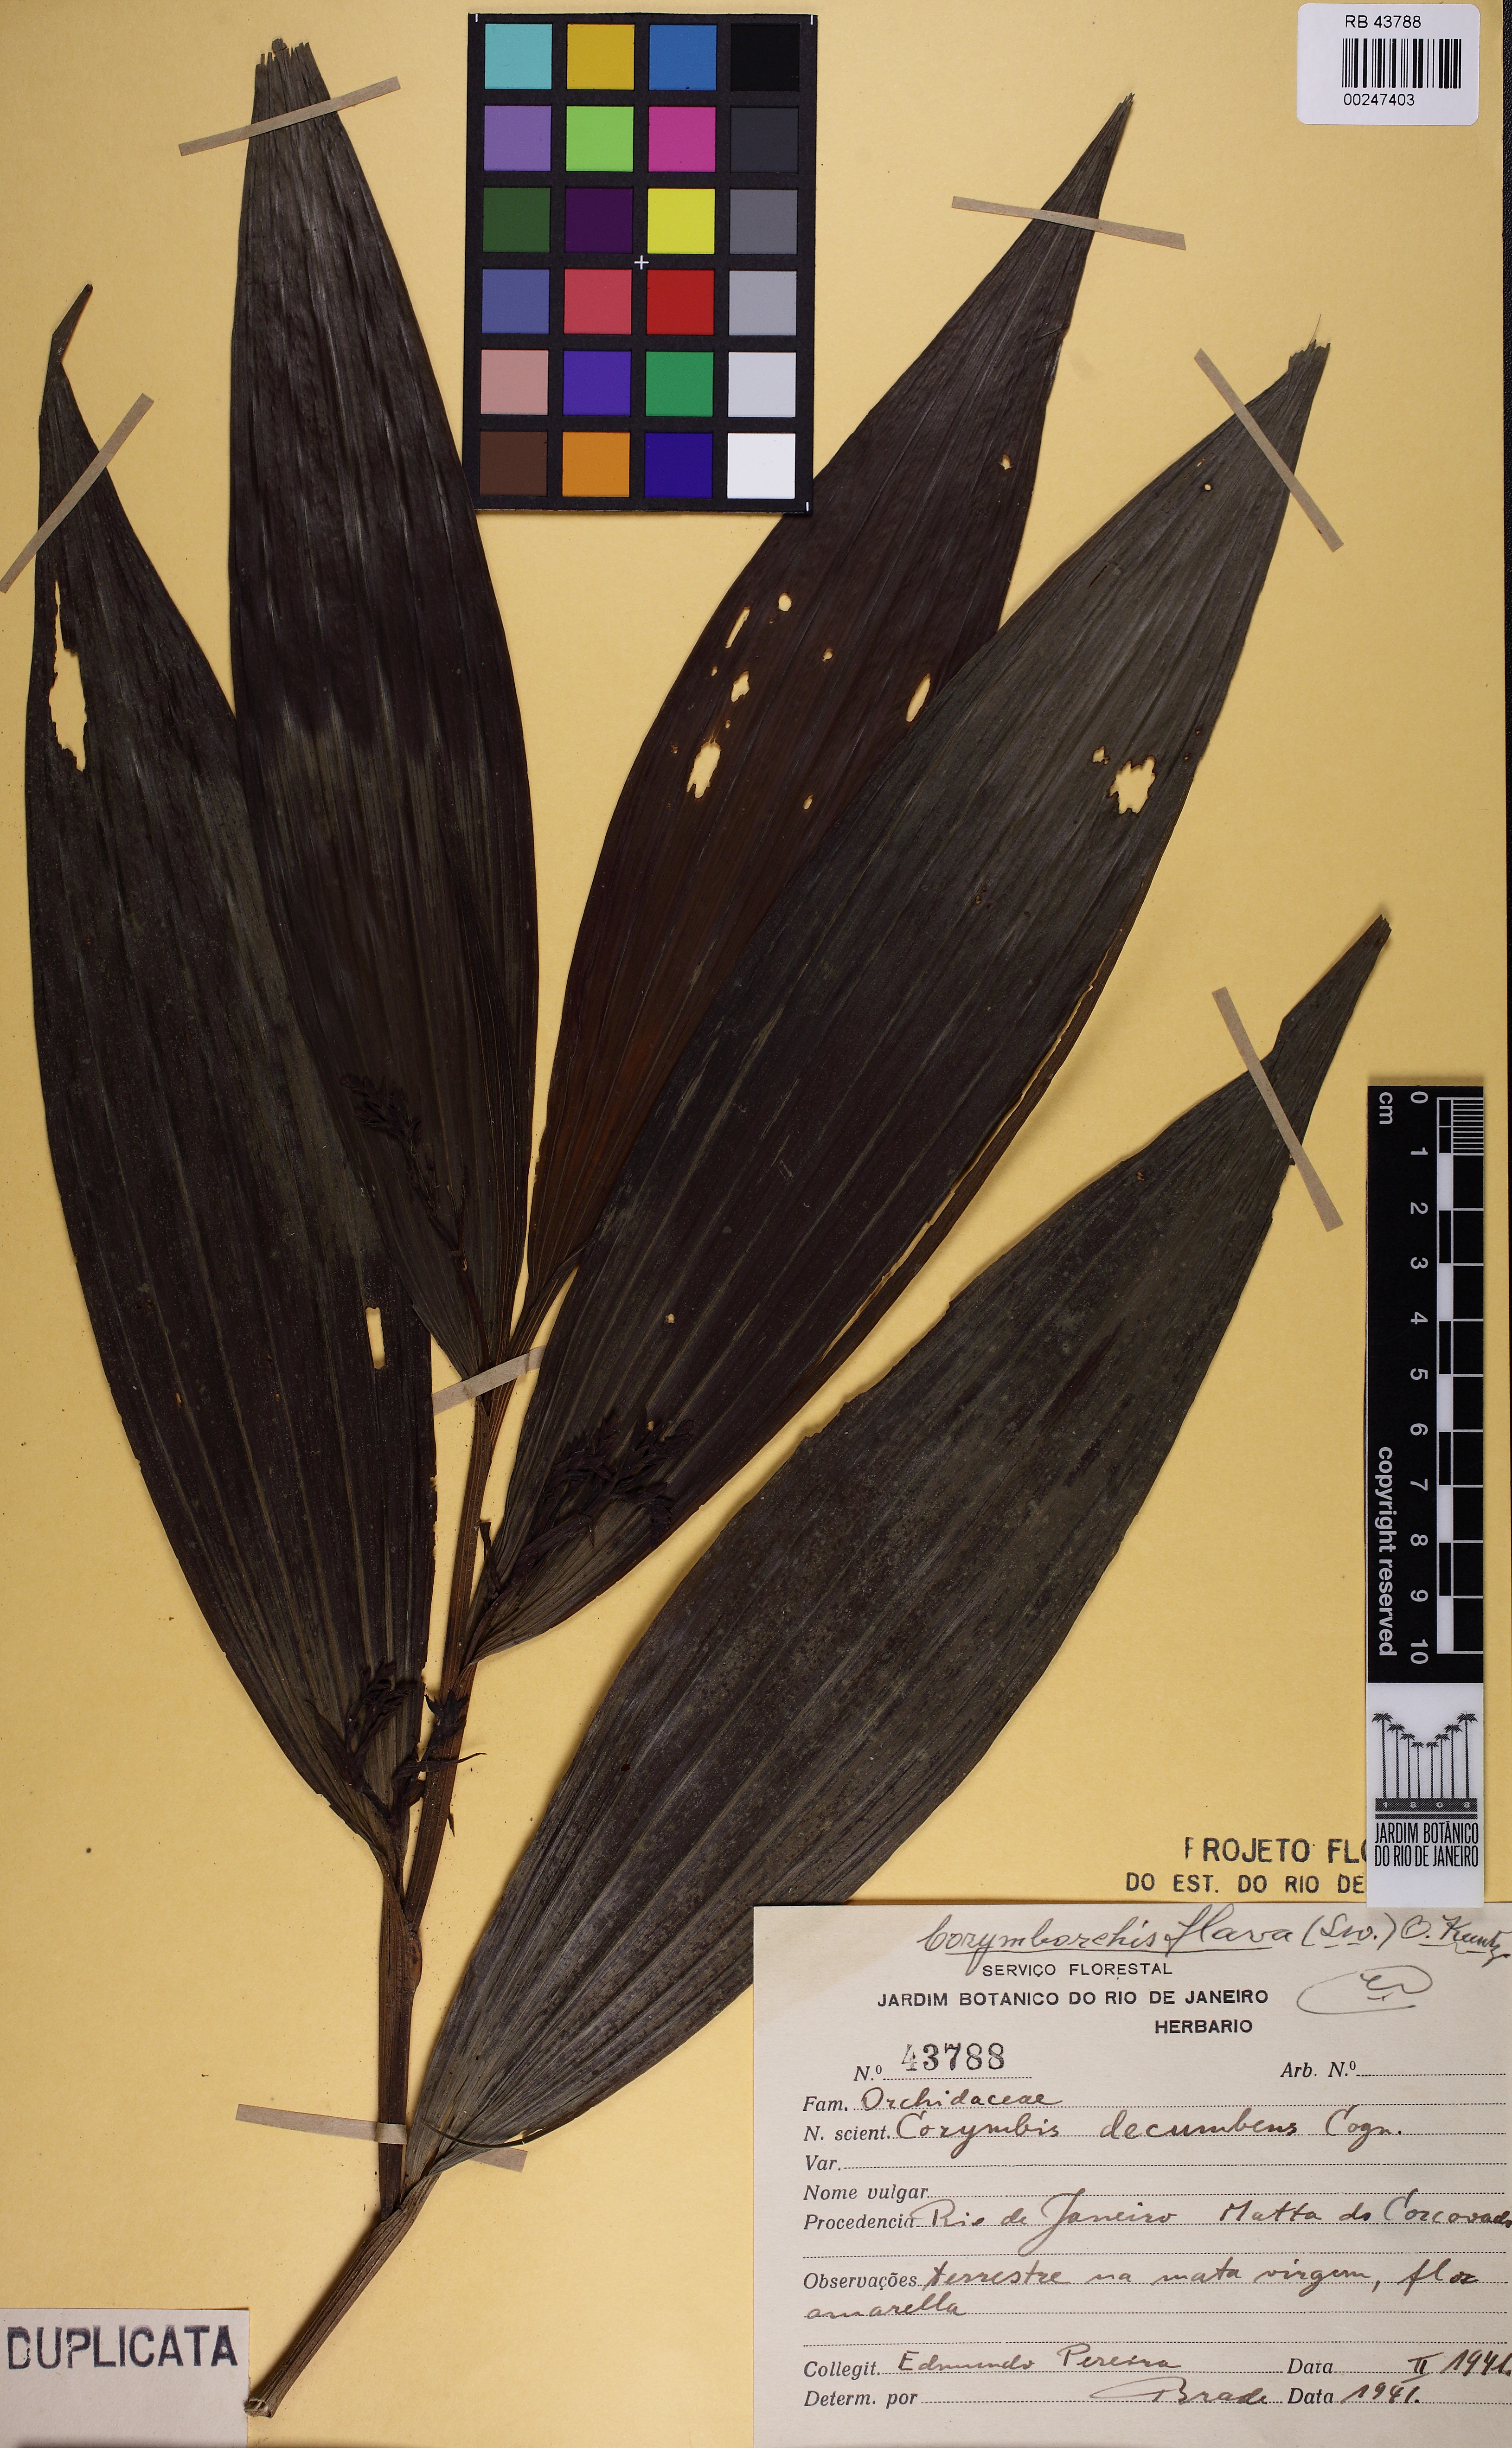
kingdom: Plantae
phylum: Tracheophyta
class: Liliopsida
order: Asparagales
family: Orchidaceae
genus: Corymborkis
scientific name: Corymborkis flava
